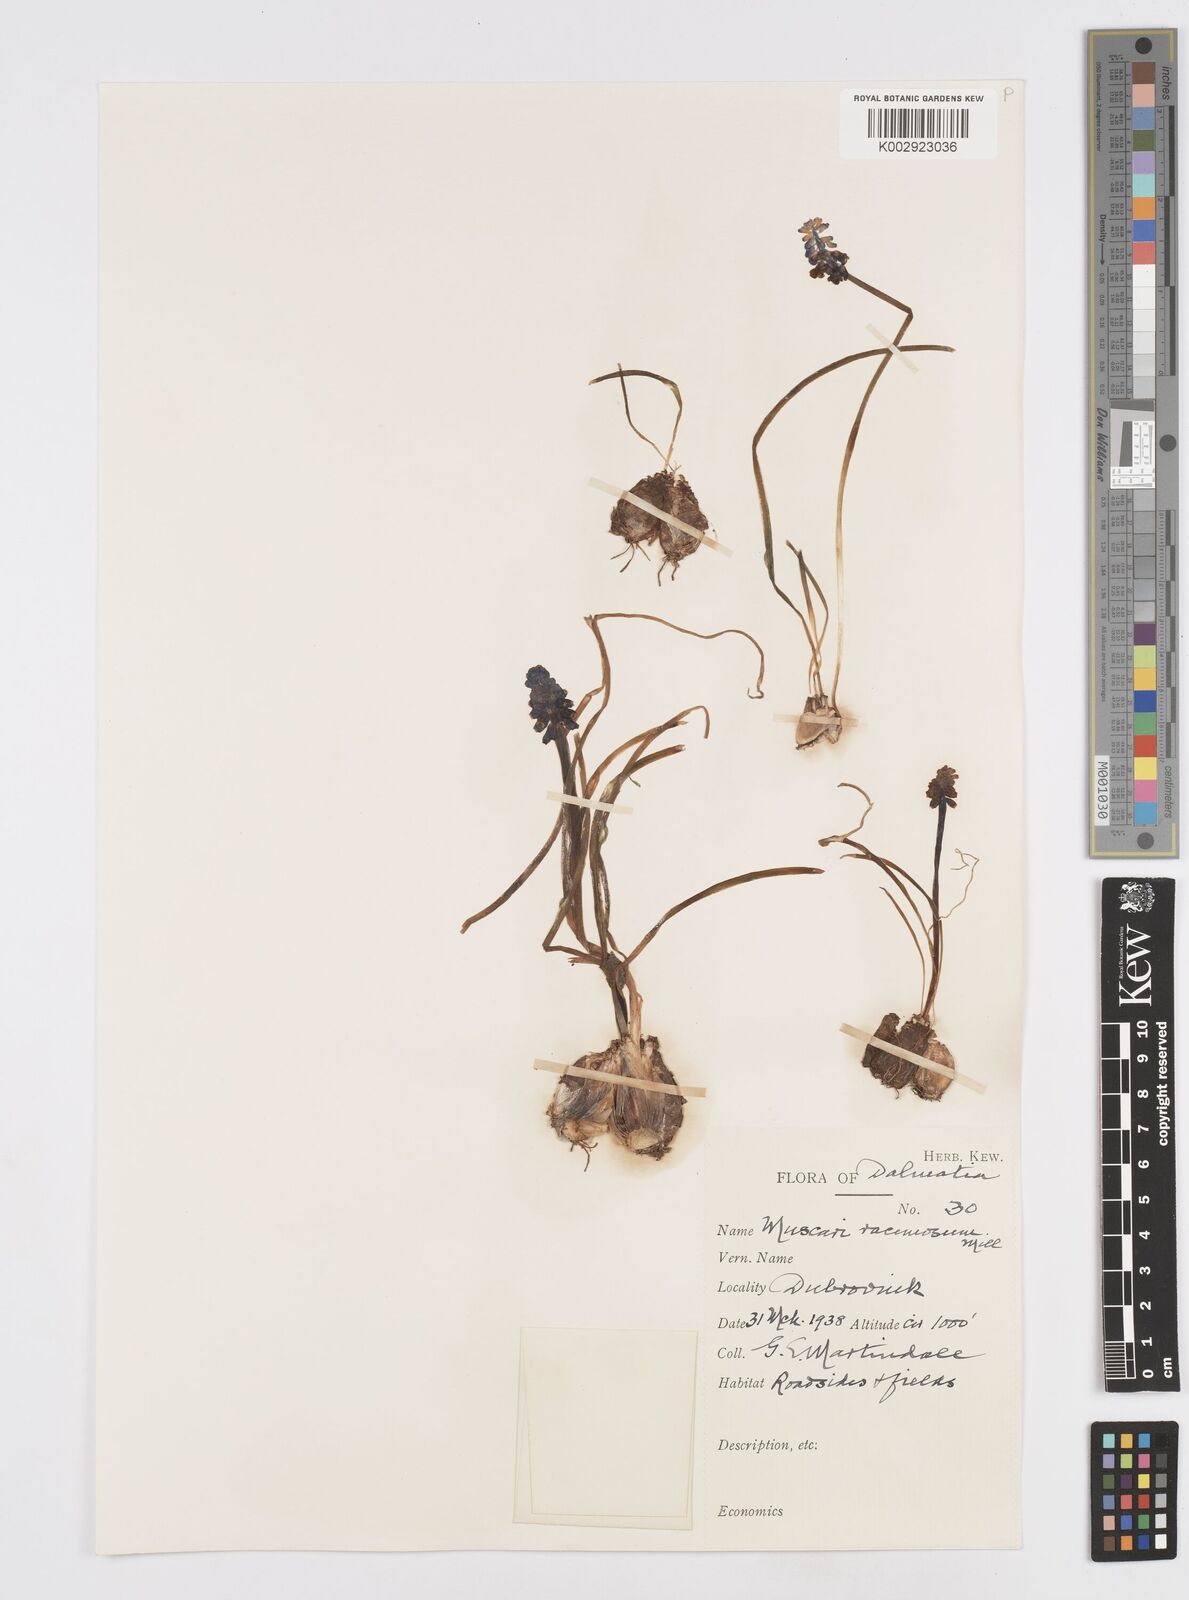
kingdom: Plantae
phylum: Tracheophyta
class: Liliopsida
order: Asparagales
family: Asparagaceae
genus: Muscarimia
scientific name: Muscarimia muscari
